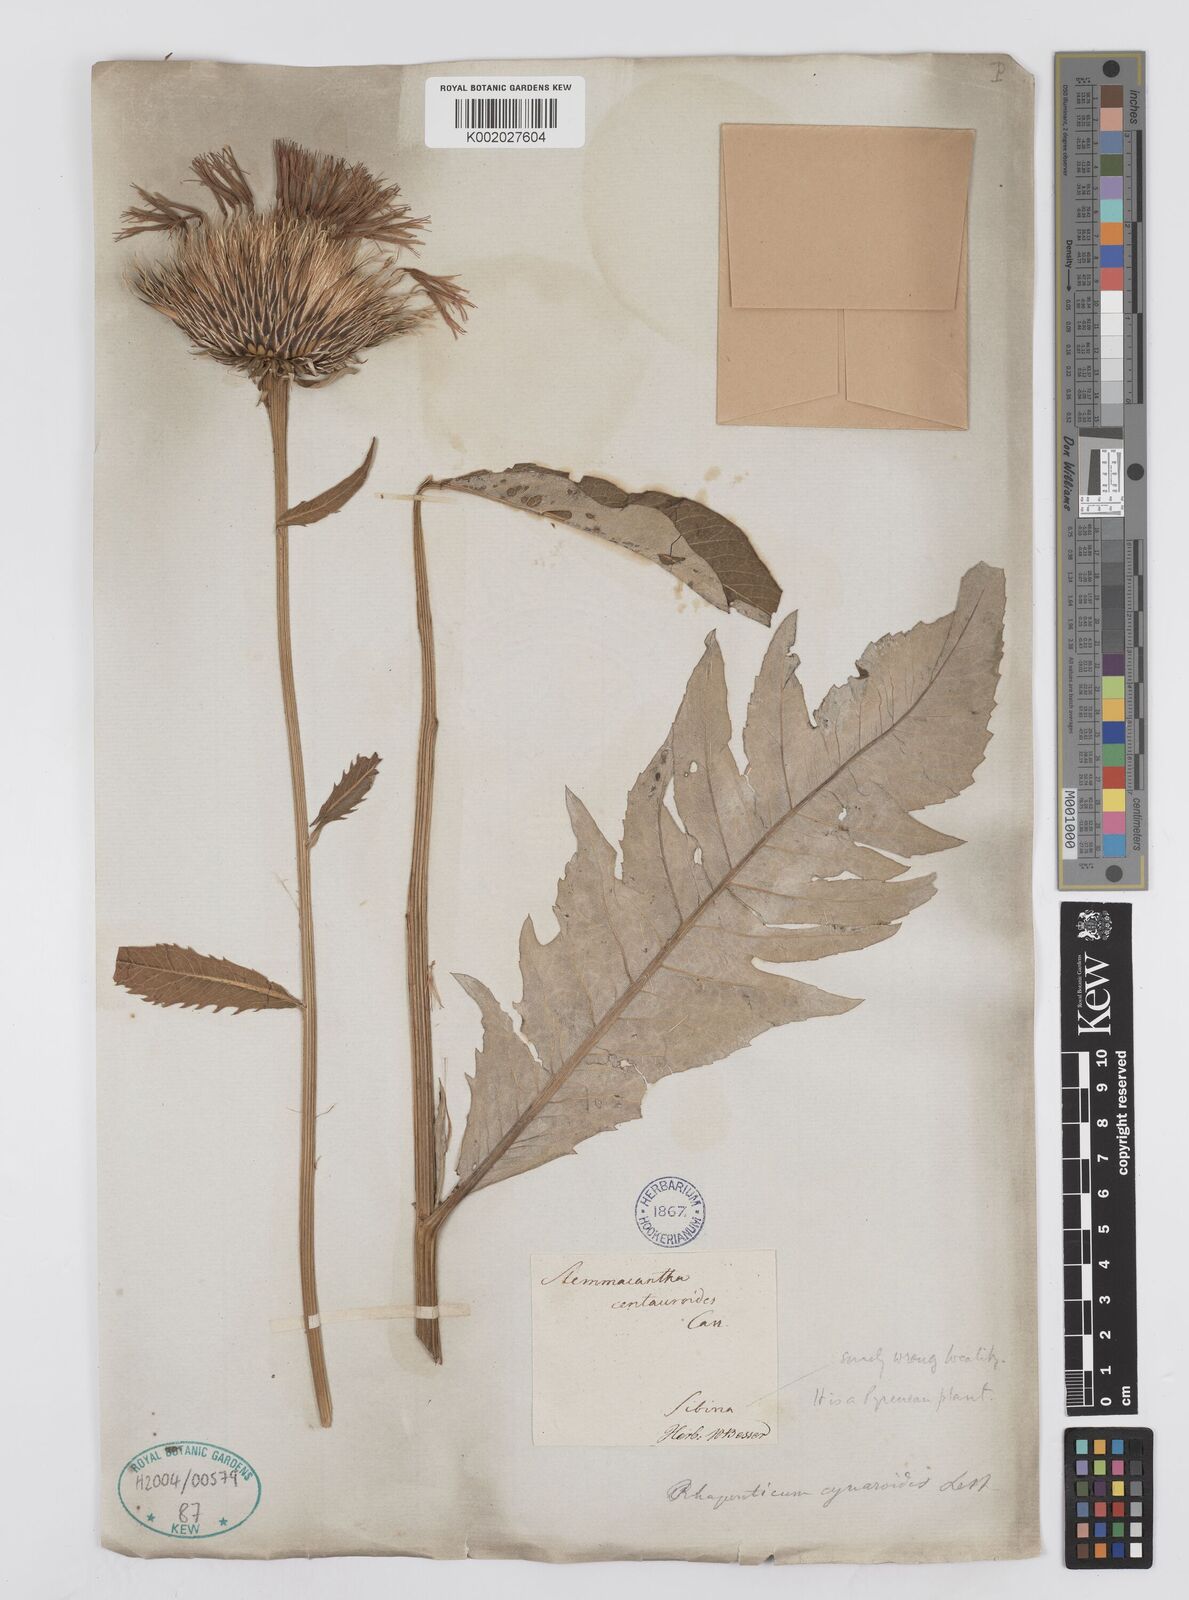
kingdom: Plantae
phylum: Tracheophyta
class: Magnoliopsida
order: Asterales
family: Asteraceae
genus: Leuzea
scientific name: Leuzea centauroides
